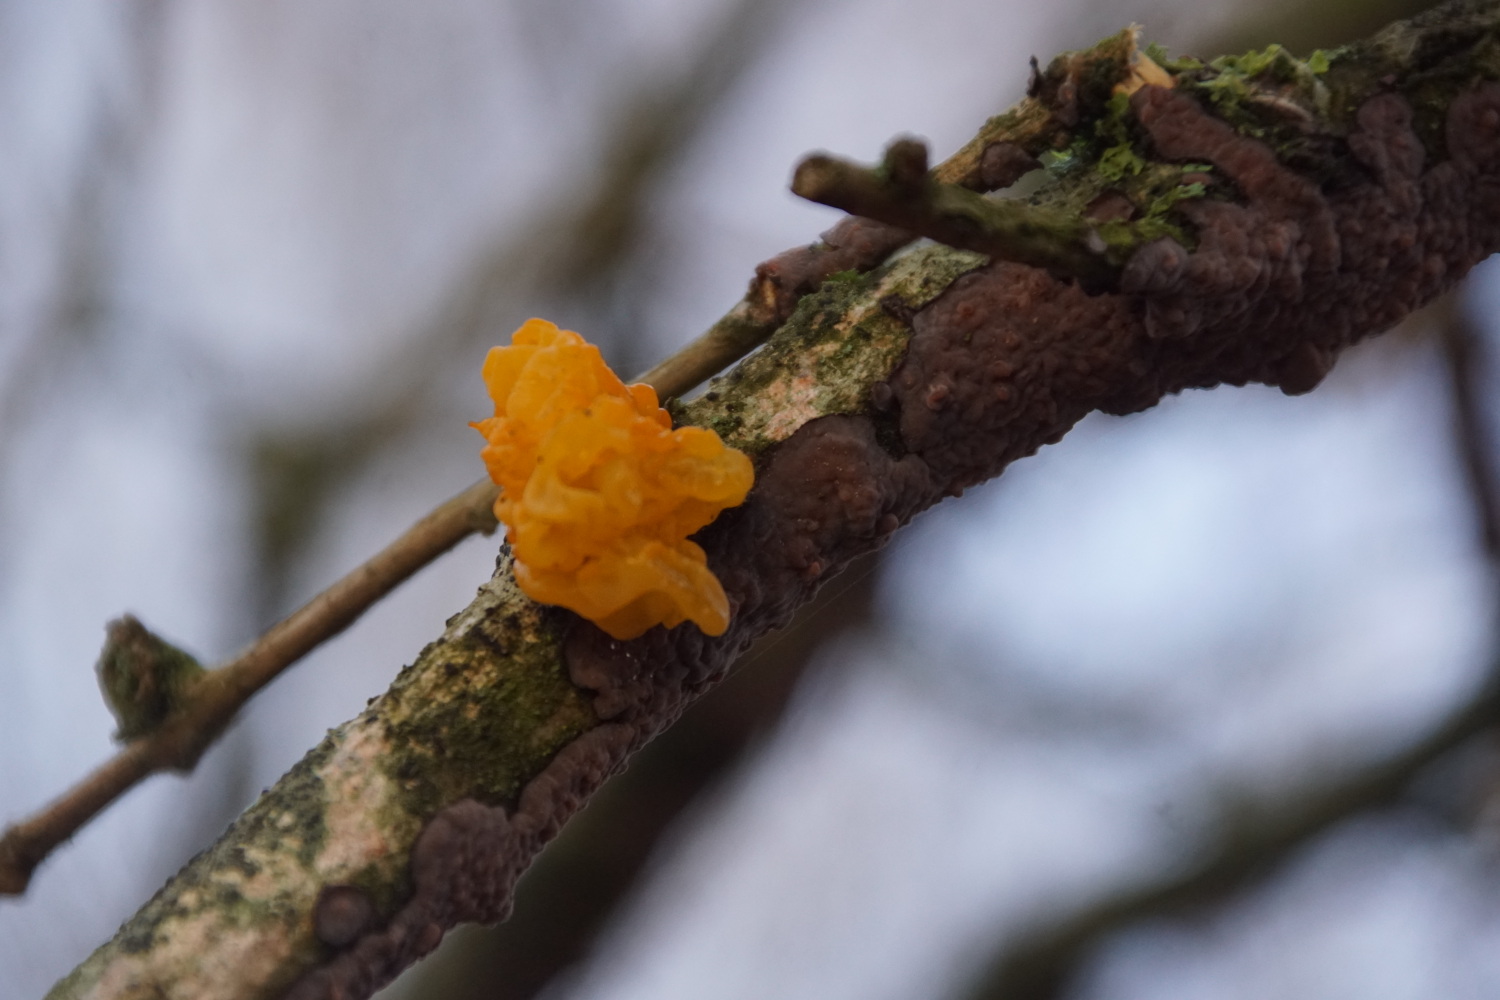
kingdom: Fungi
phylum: Basidiomycota
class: Tremellomycetes
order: Tremellales
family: Tremellaceae
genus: Tremella
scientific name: Tremella mesenterica
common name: gul bævresvamp
